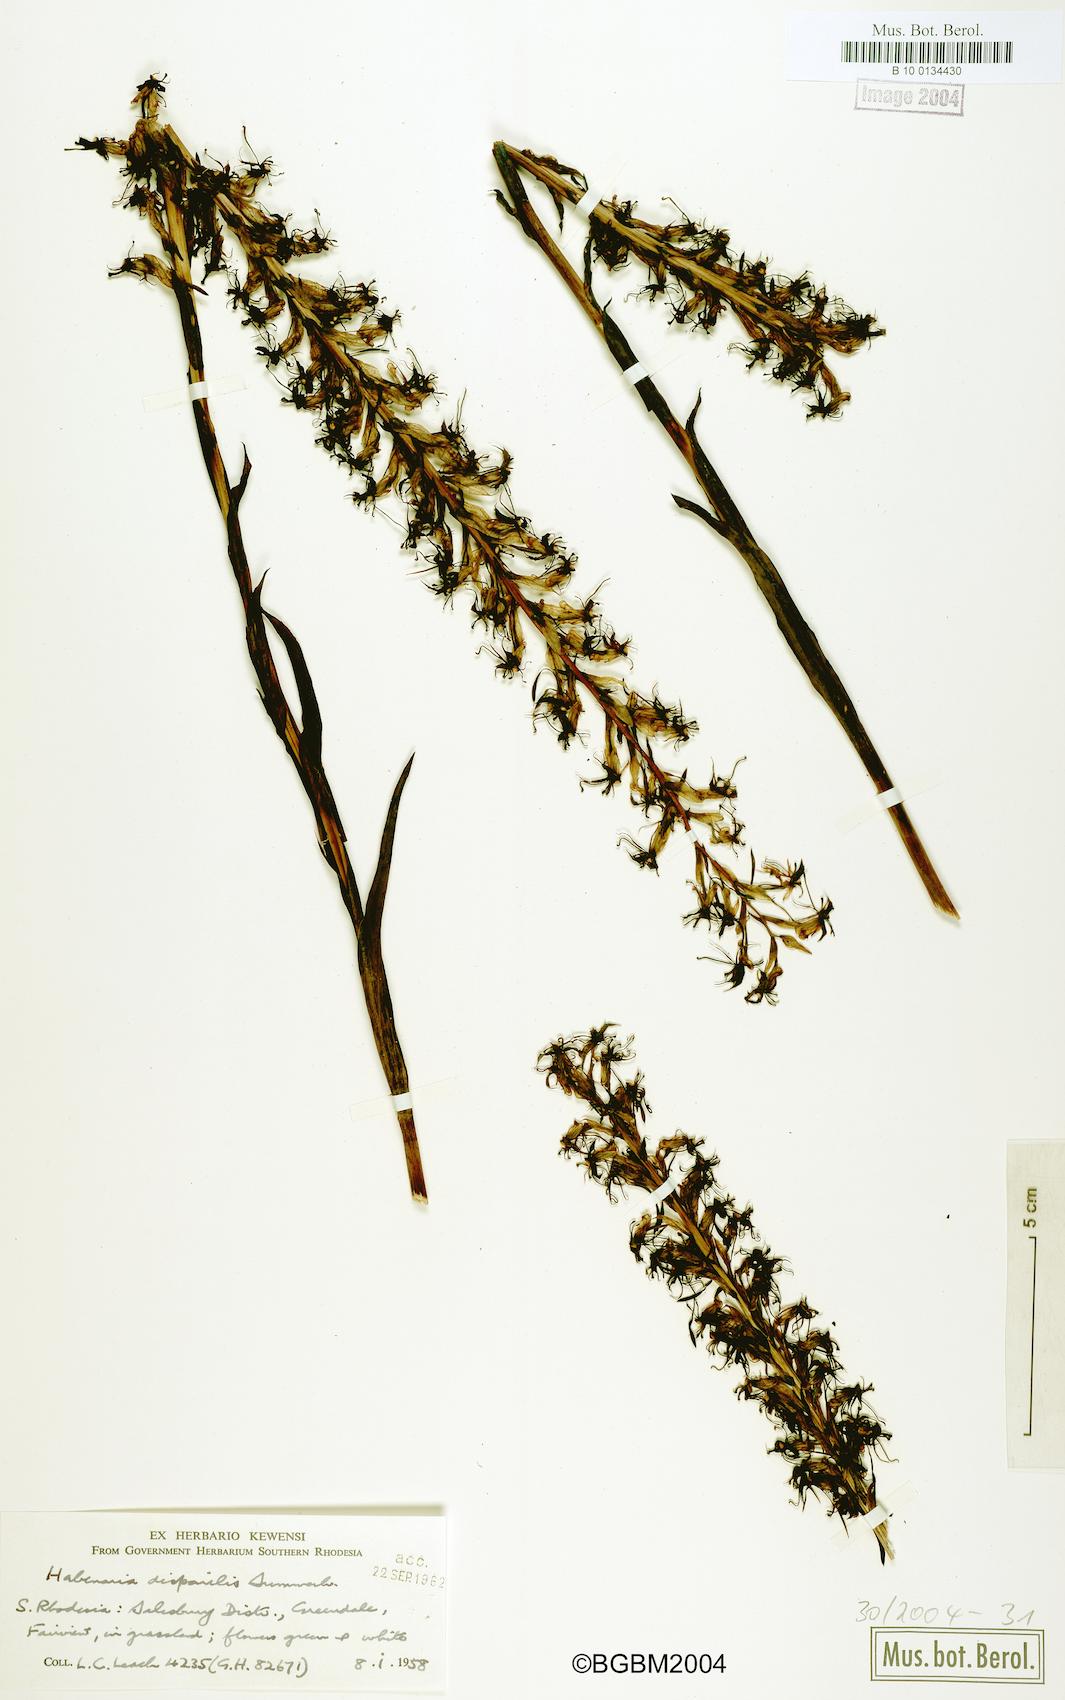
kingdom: Plantae
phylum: Tracheophyta
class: Liliopsida
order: Asparagales
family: Orchidaceae
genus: Habenaria
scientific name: Habenaria disparilis
